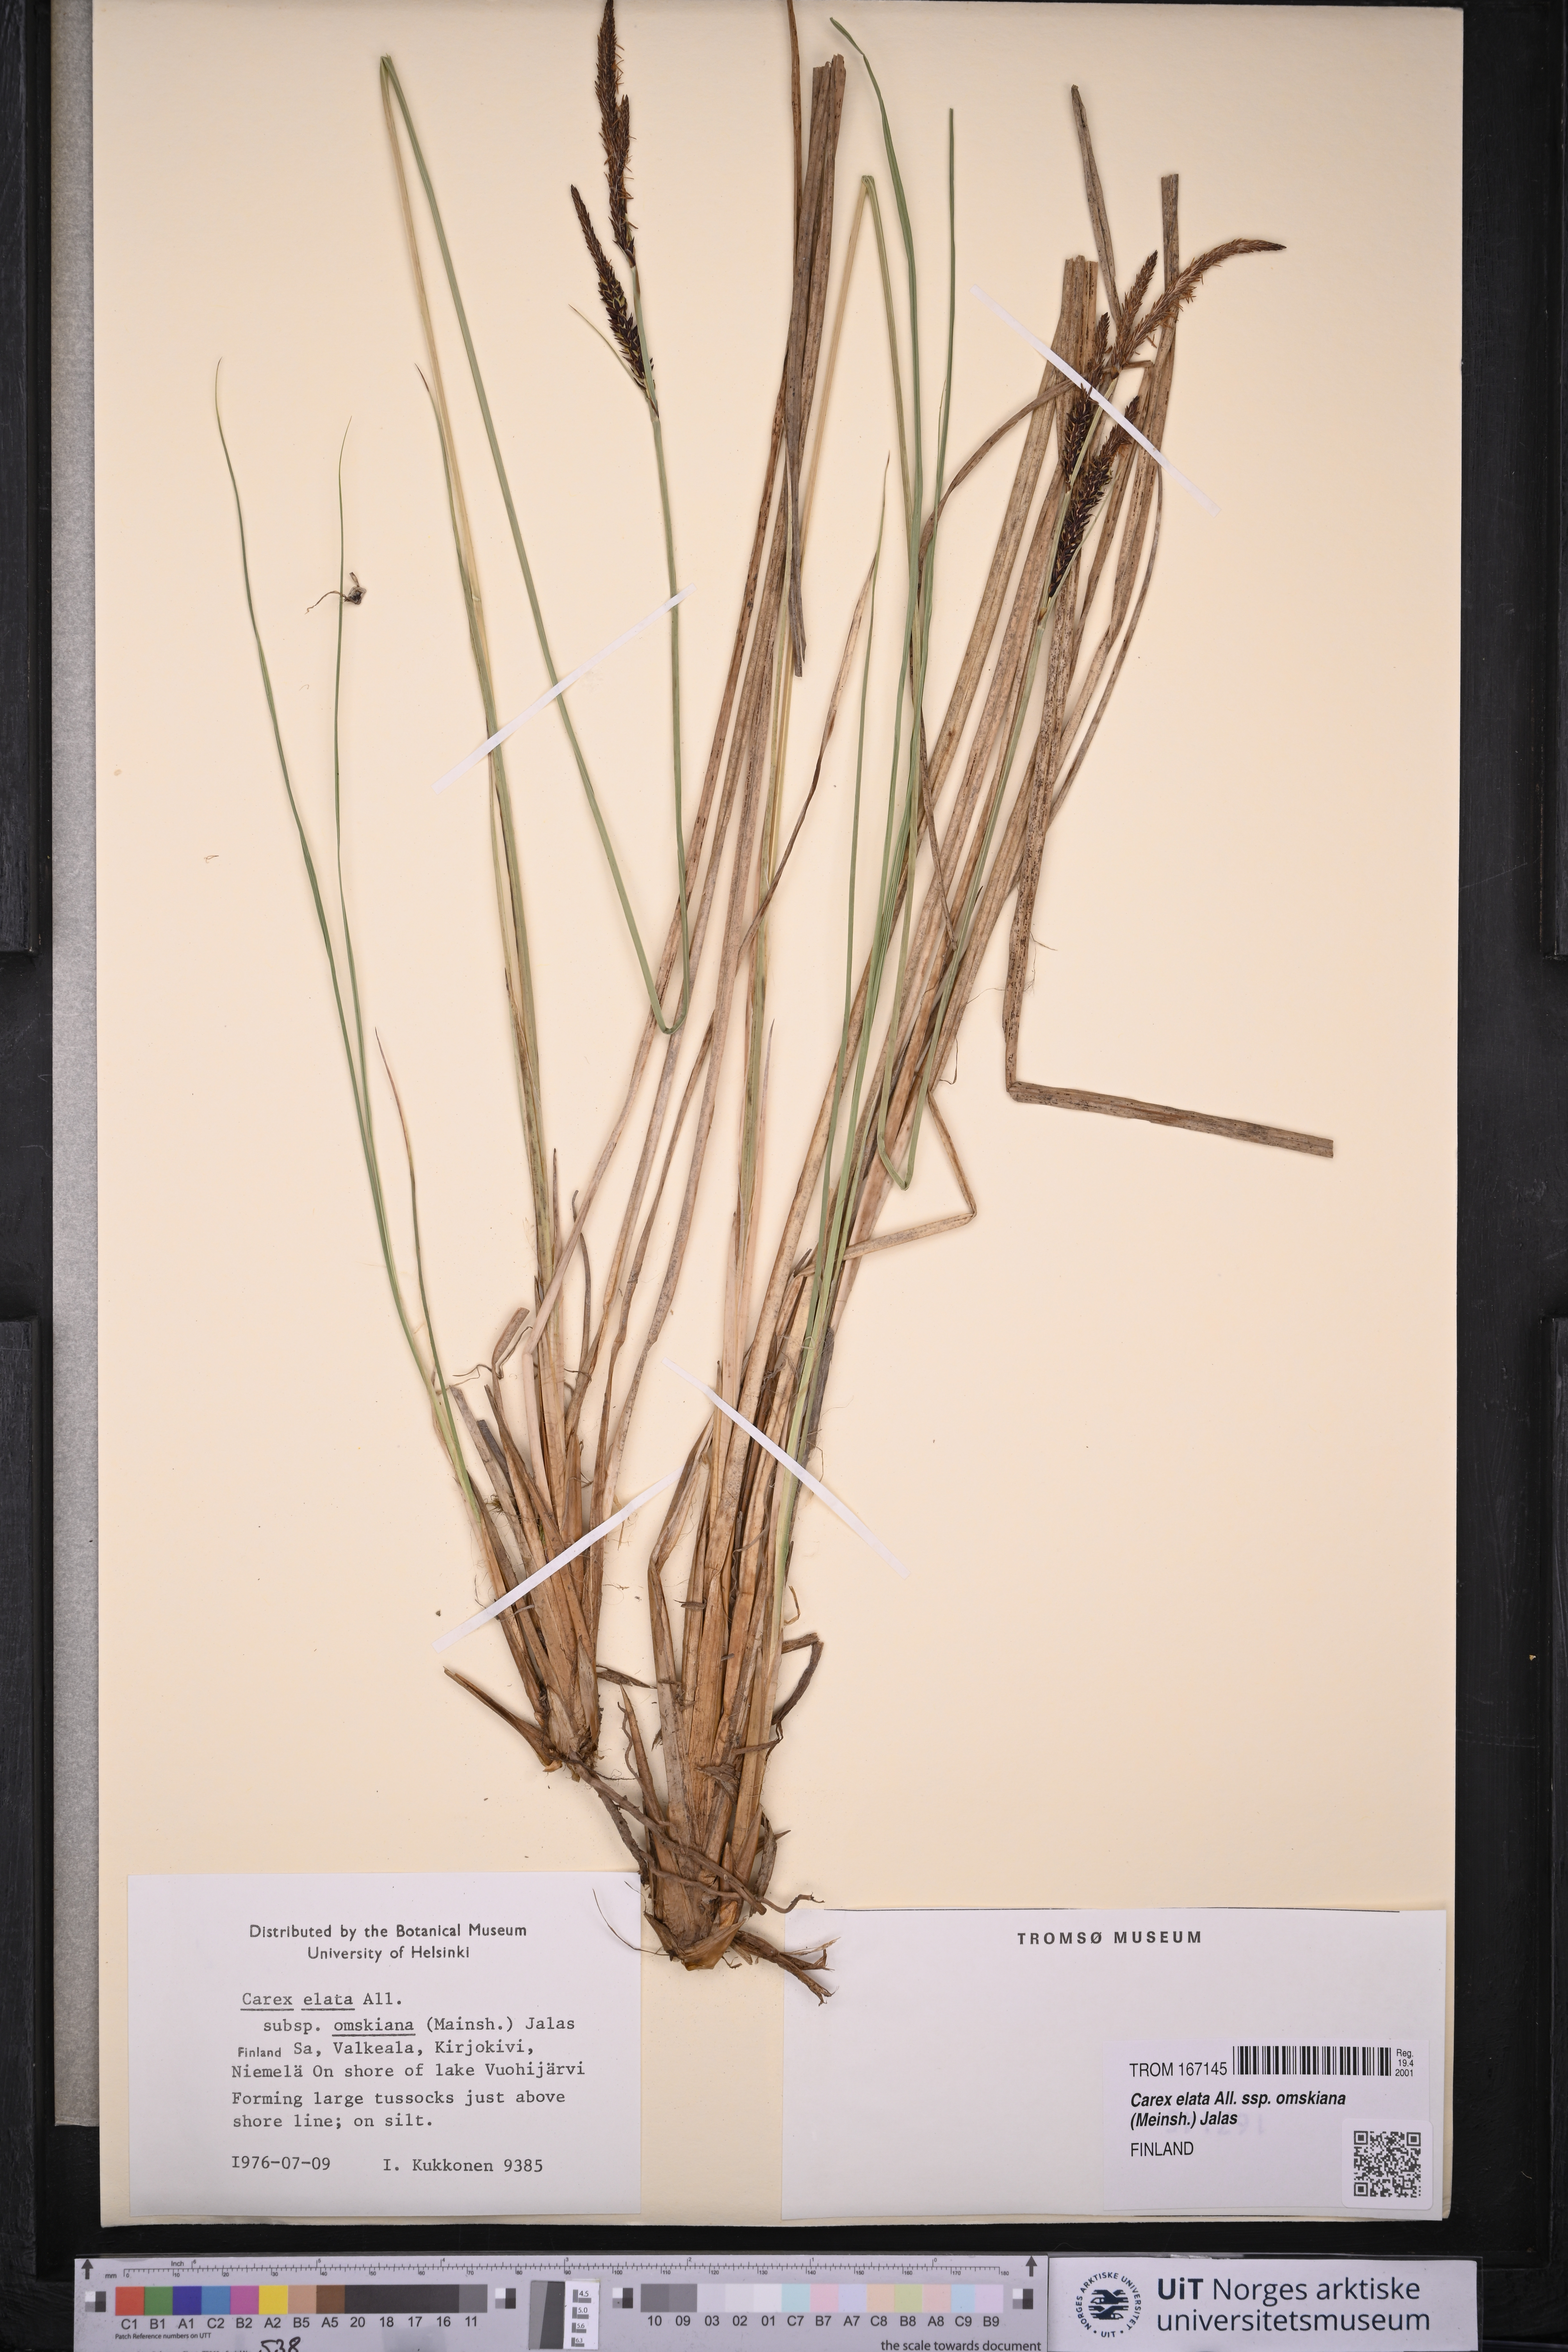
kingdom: Plantae
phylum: Tracheophyta
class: Liliopsida
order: Poales
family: Cyperaceae
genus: Carex
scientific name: Carex elata
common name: Tufted sedge
